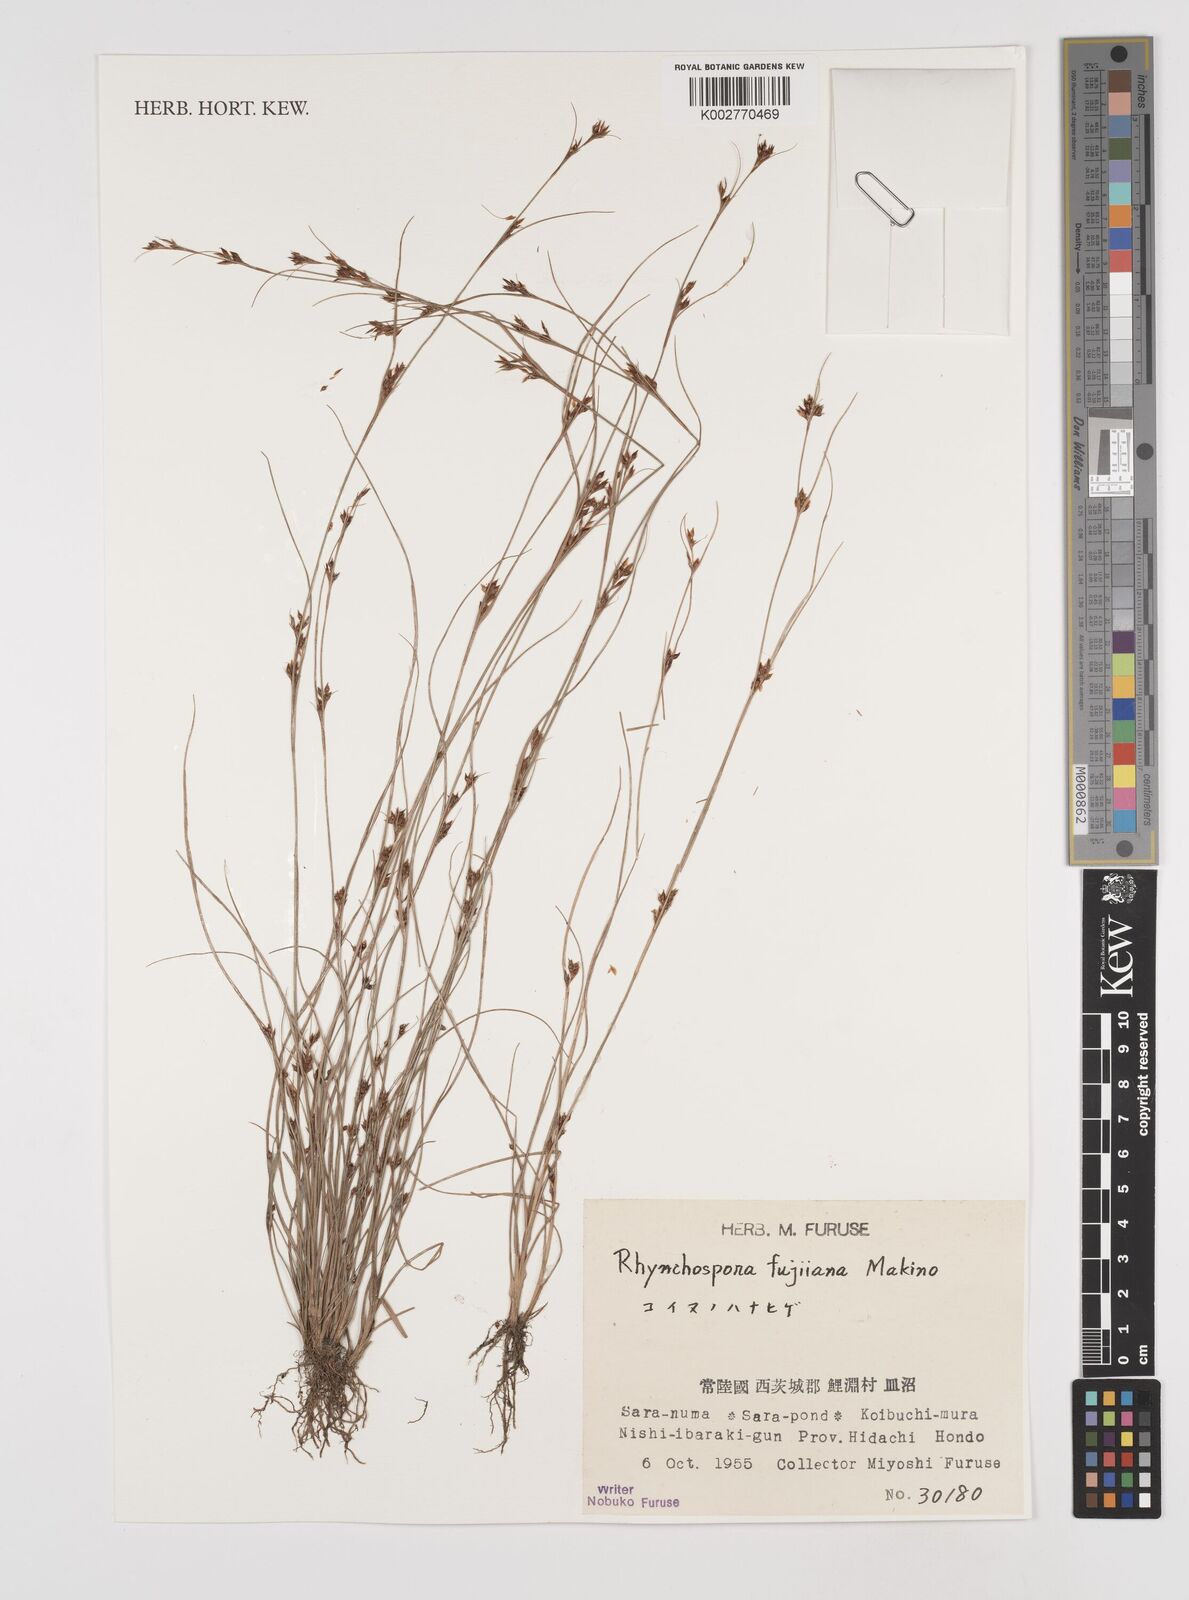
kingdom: Plantae
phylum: Tracheophyta
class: Liliopsida
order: Poales
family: Cyperaceae
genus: Rhynchospora
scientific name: Rhynchospora fujiiana
